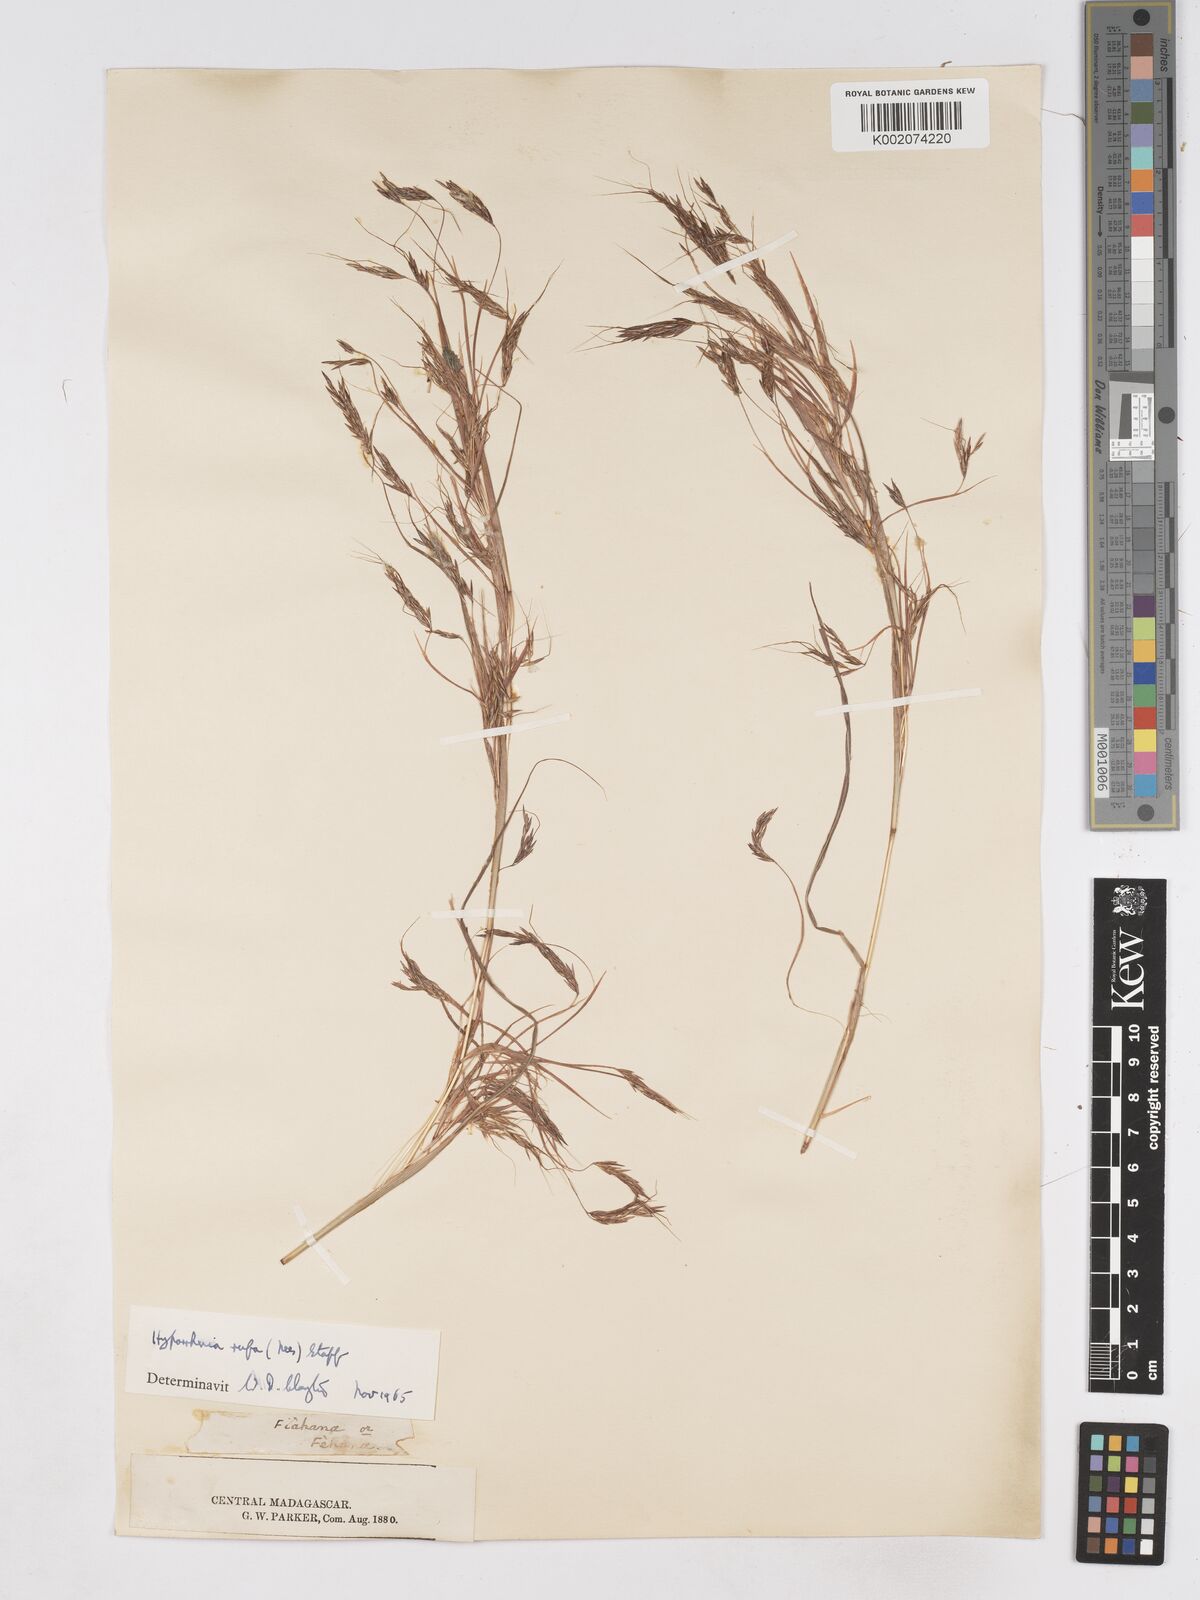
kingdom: Plantae
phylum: Tracheophyta
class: Liliopsida
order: Poales
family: Poaceae
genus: Hyparrhenia
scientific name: Hyparrhenia rufa
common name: Jaraguagrass
